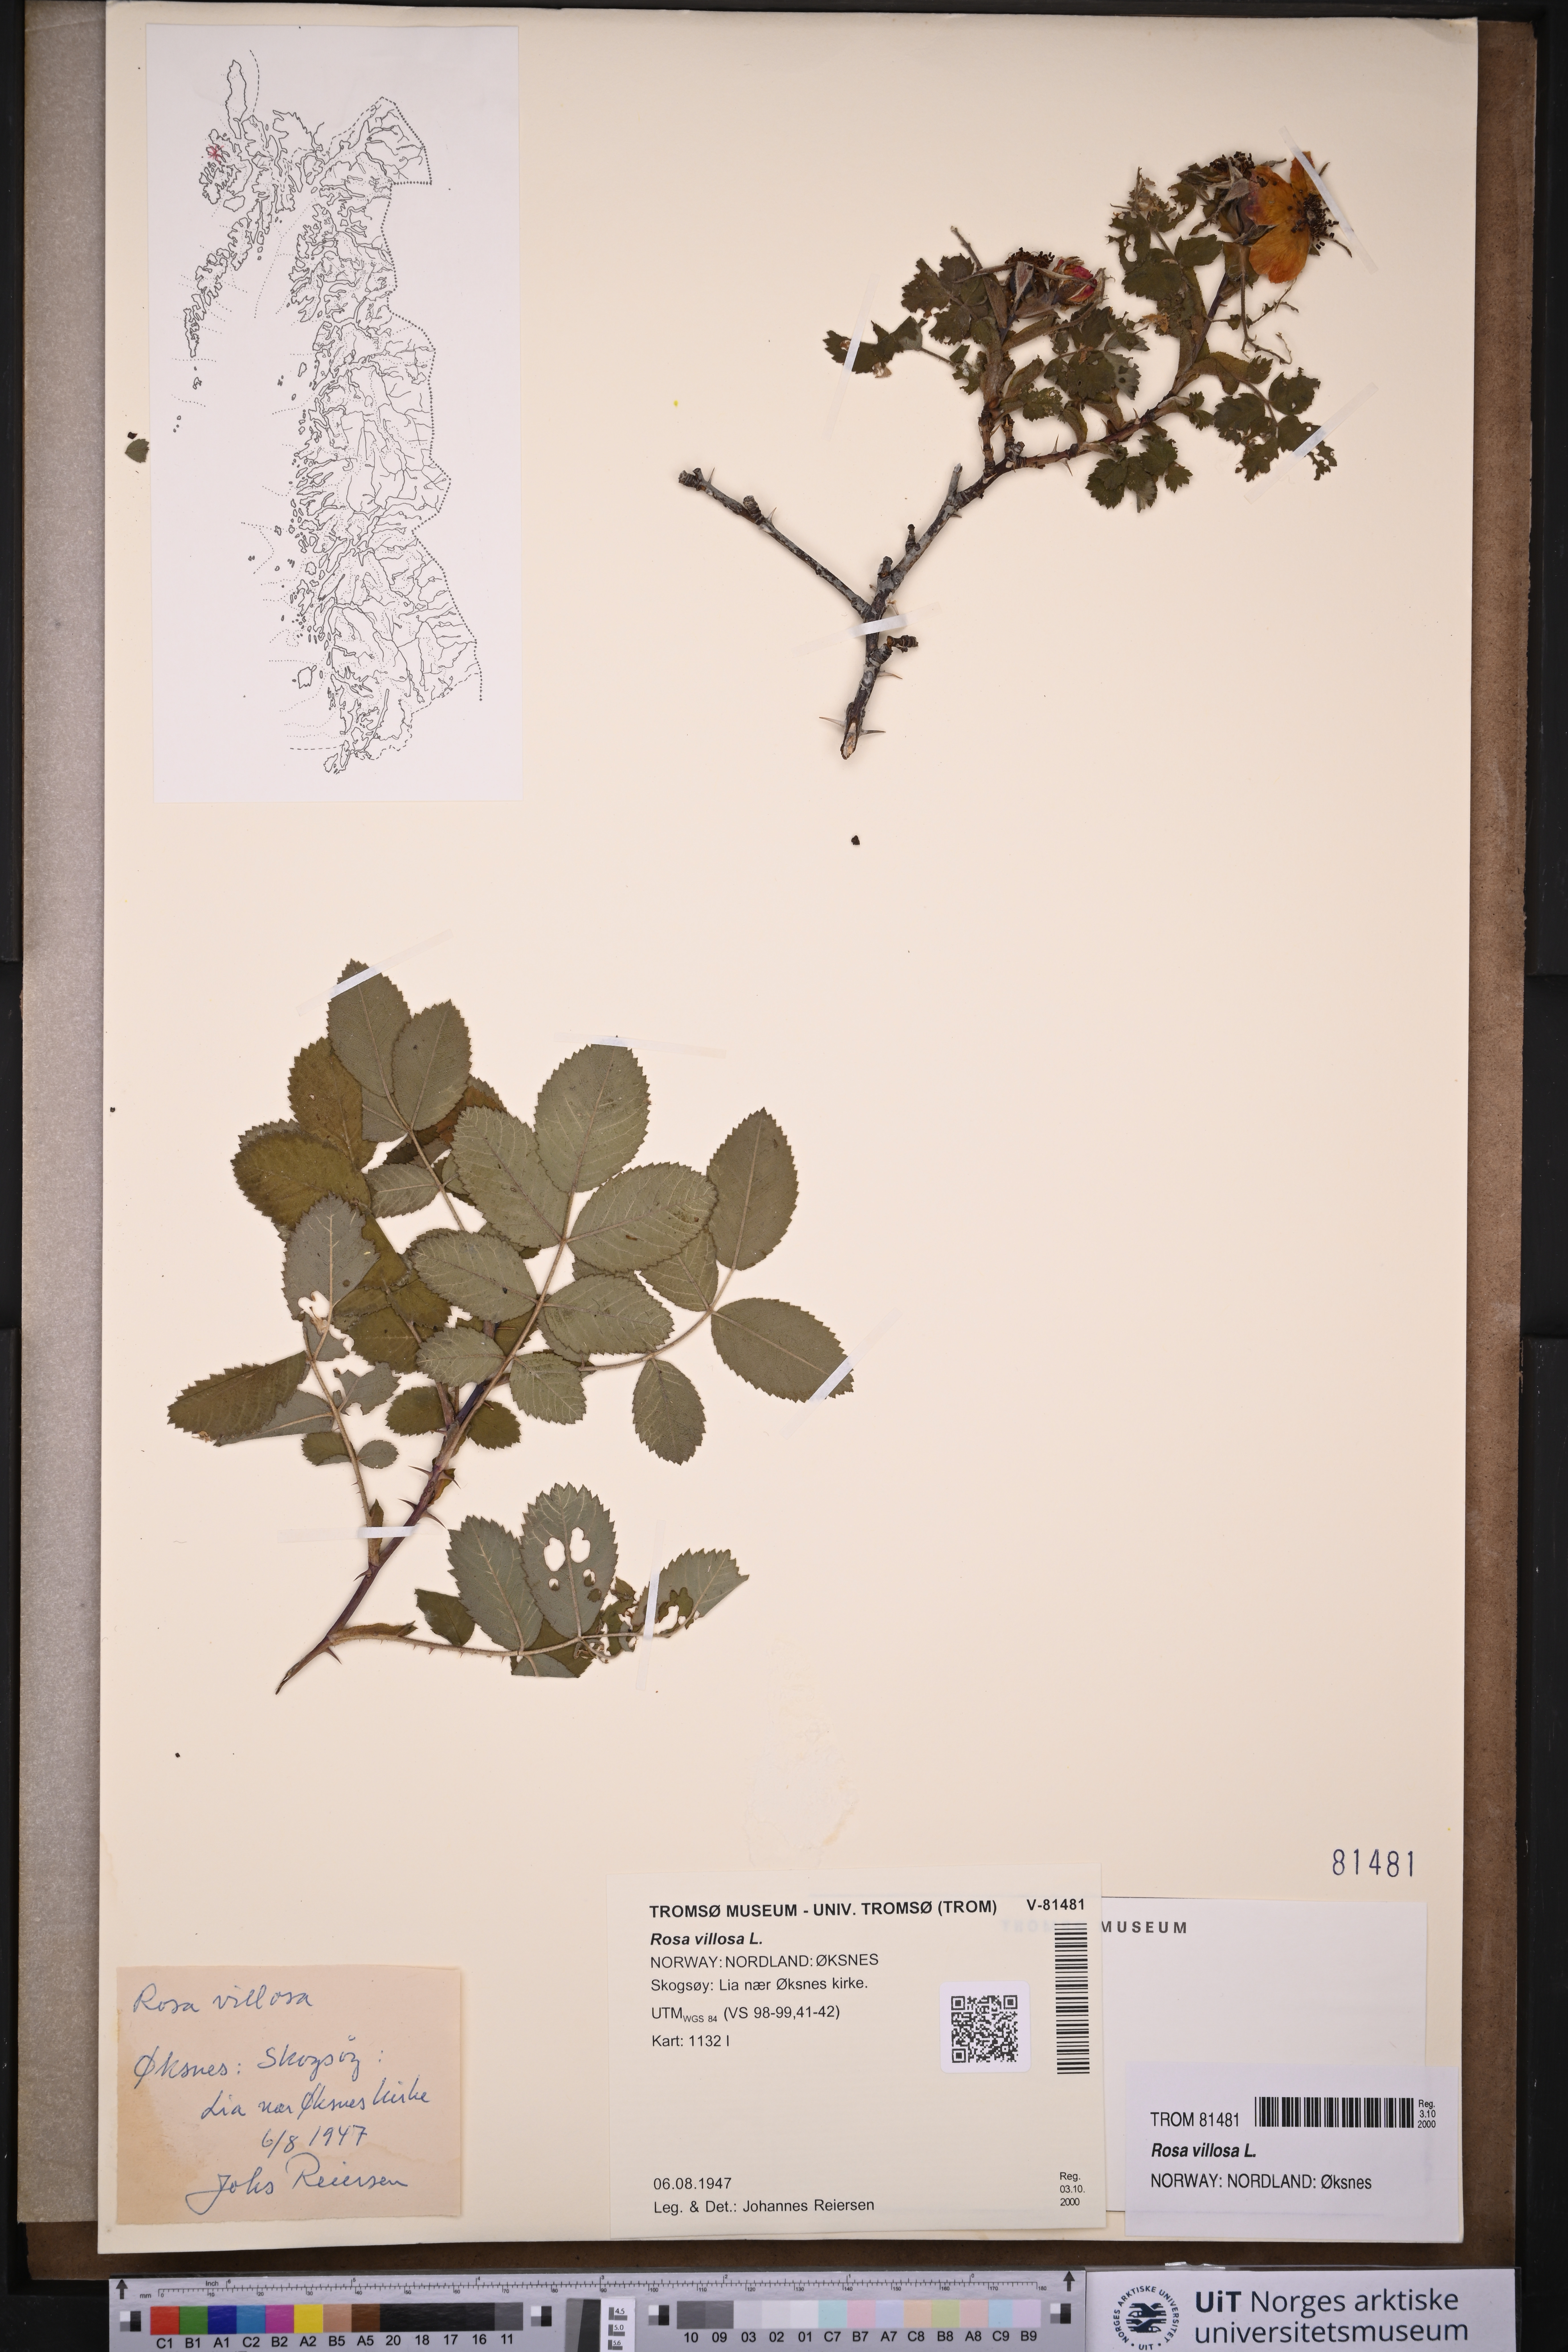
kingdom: Plantae
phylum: Tracheophyta
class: Magnoliopsida
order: Rosales
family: Rosaceae
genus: Rosa
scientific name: Rosa villosa
